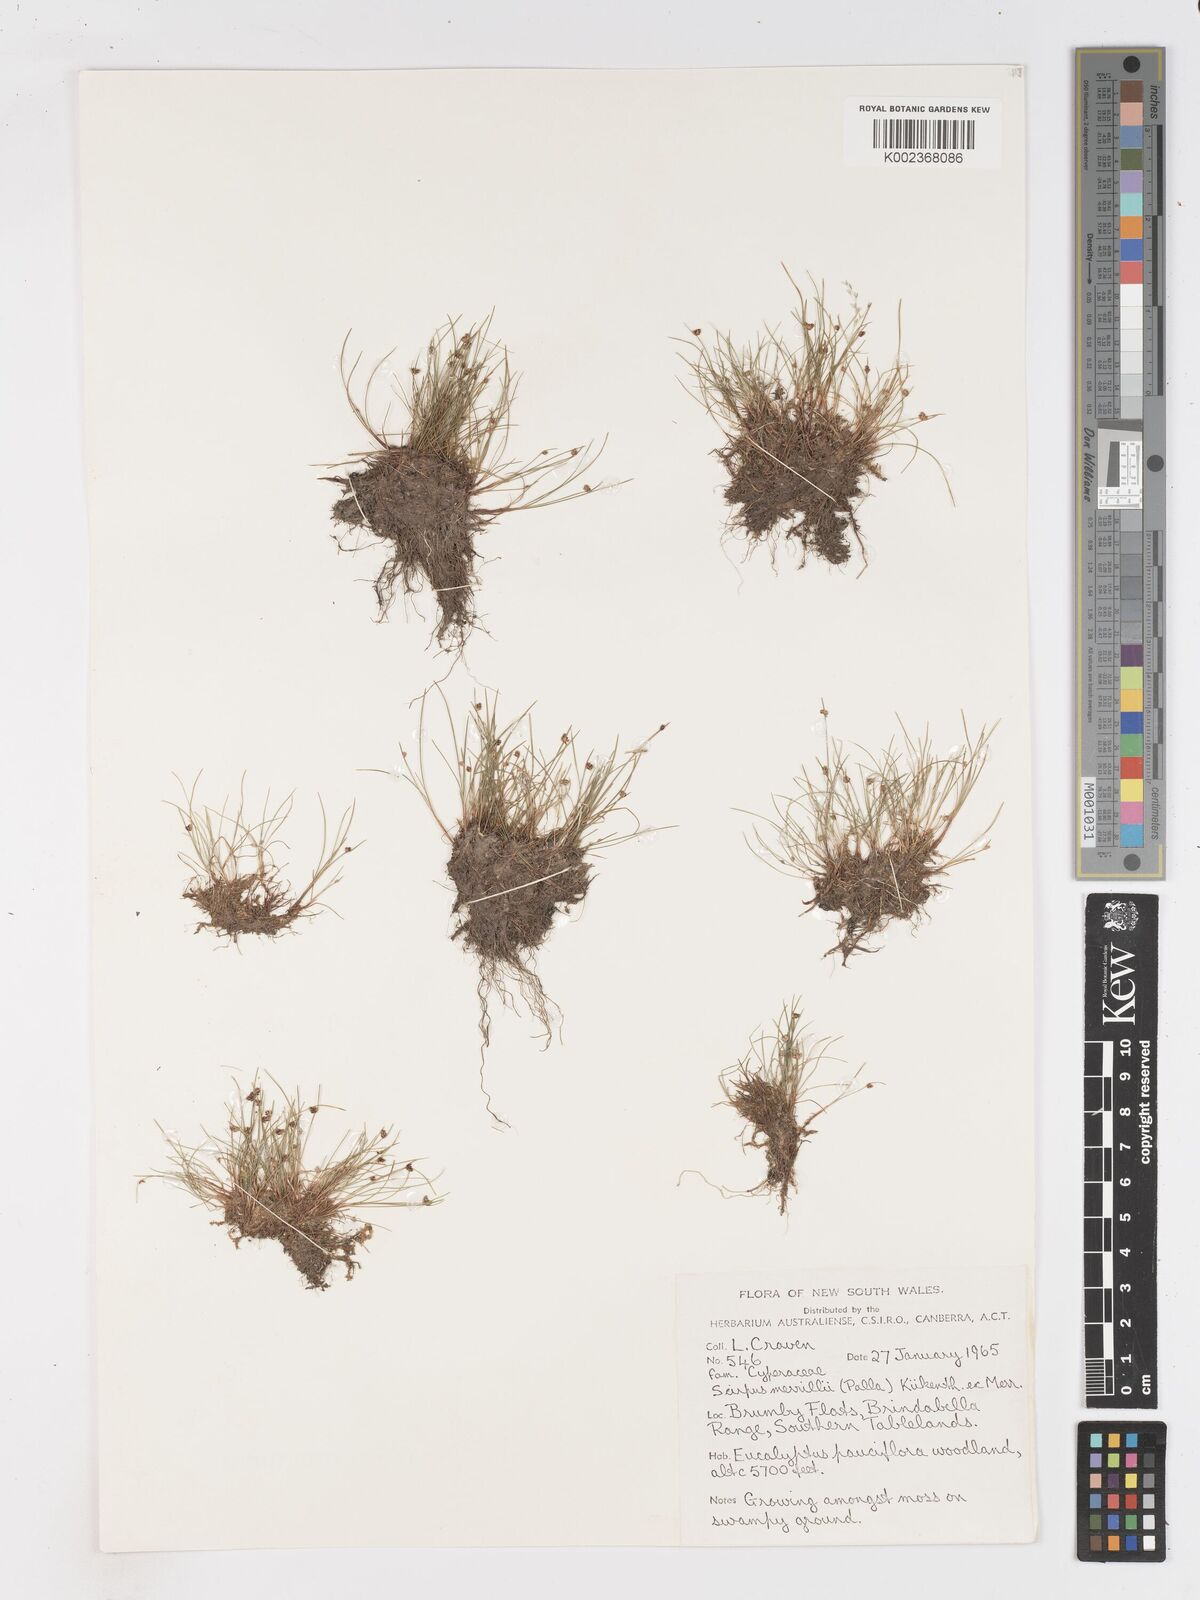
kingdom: Plantae
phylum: Tracheophyta
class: Liliopsida
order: Poales
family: Cyperaceae
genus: Isolepis
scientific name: Isolepis habra
